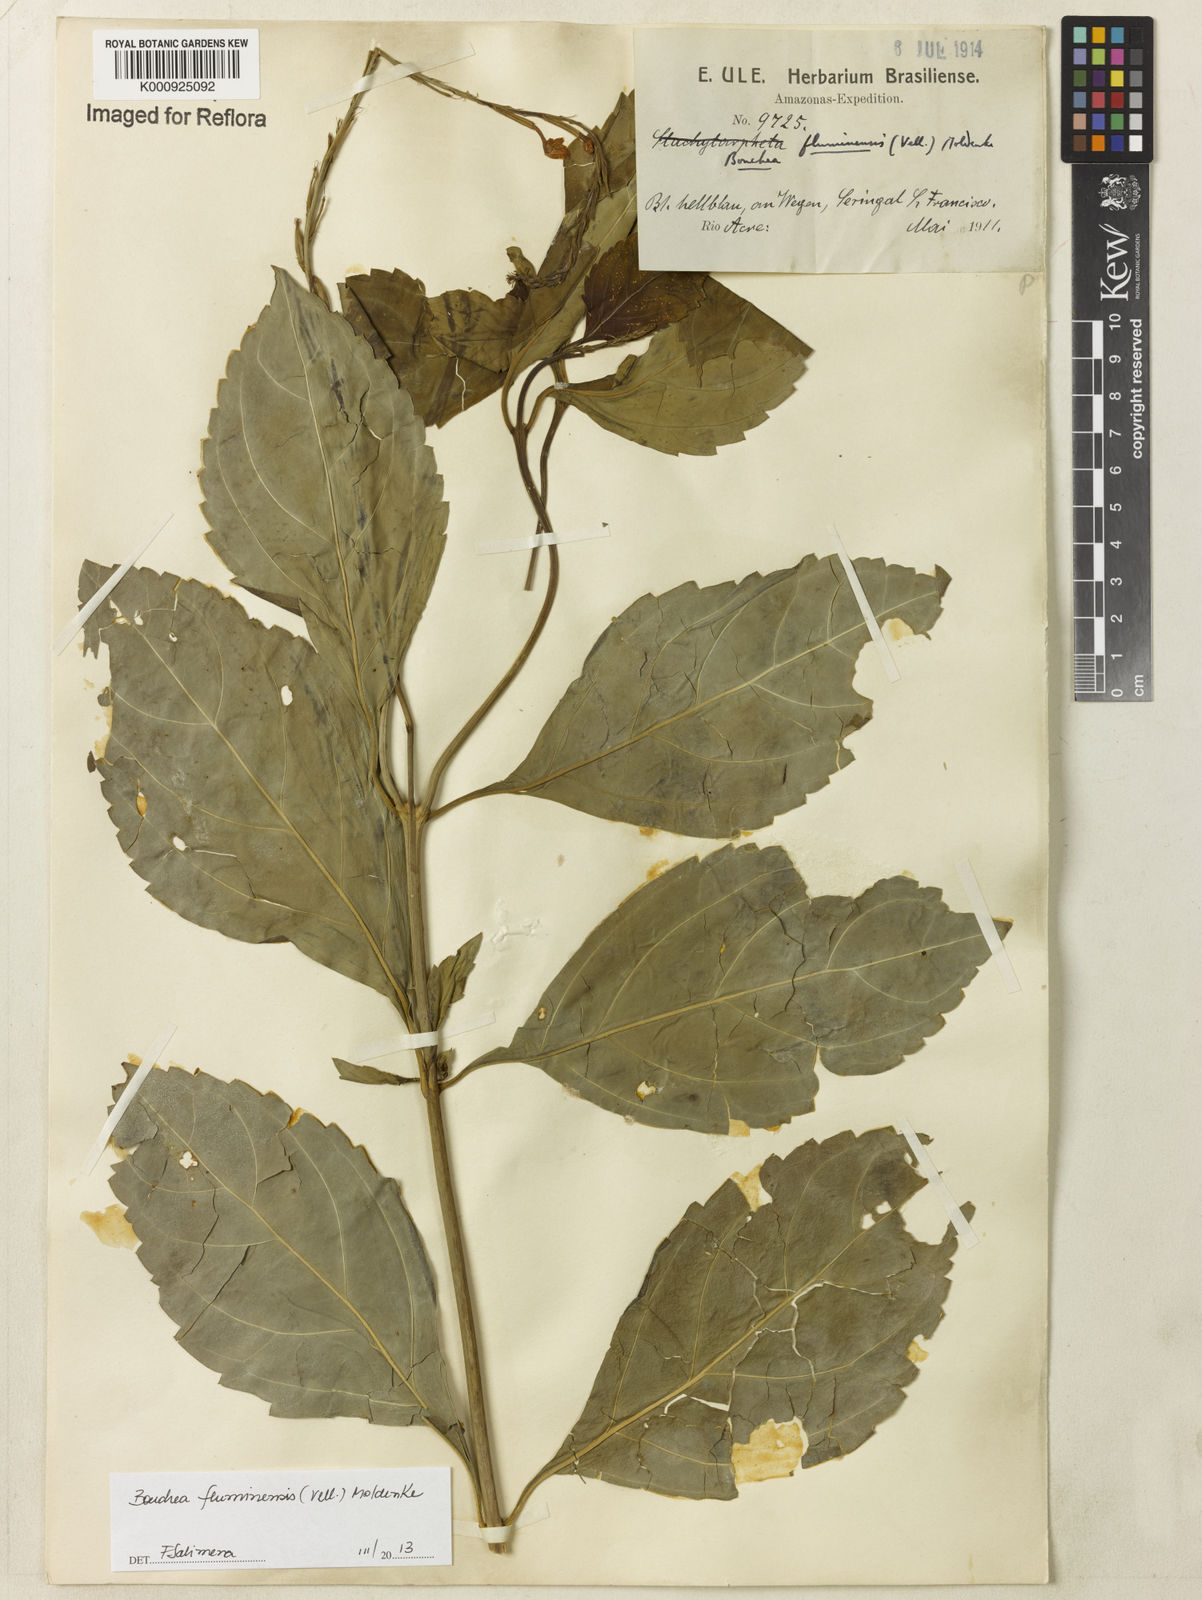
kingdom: Plantae
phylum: Tracheophyta
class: Magnoliopsida
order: Lamiales
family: Verbenaceae
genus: Bouchea
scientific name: Bouchea pseudogervao
